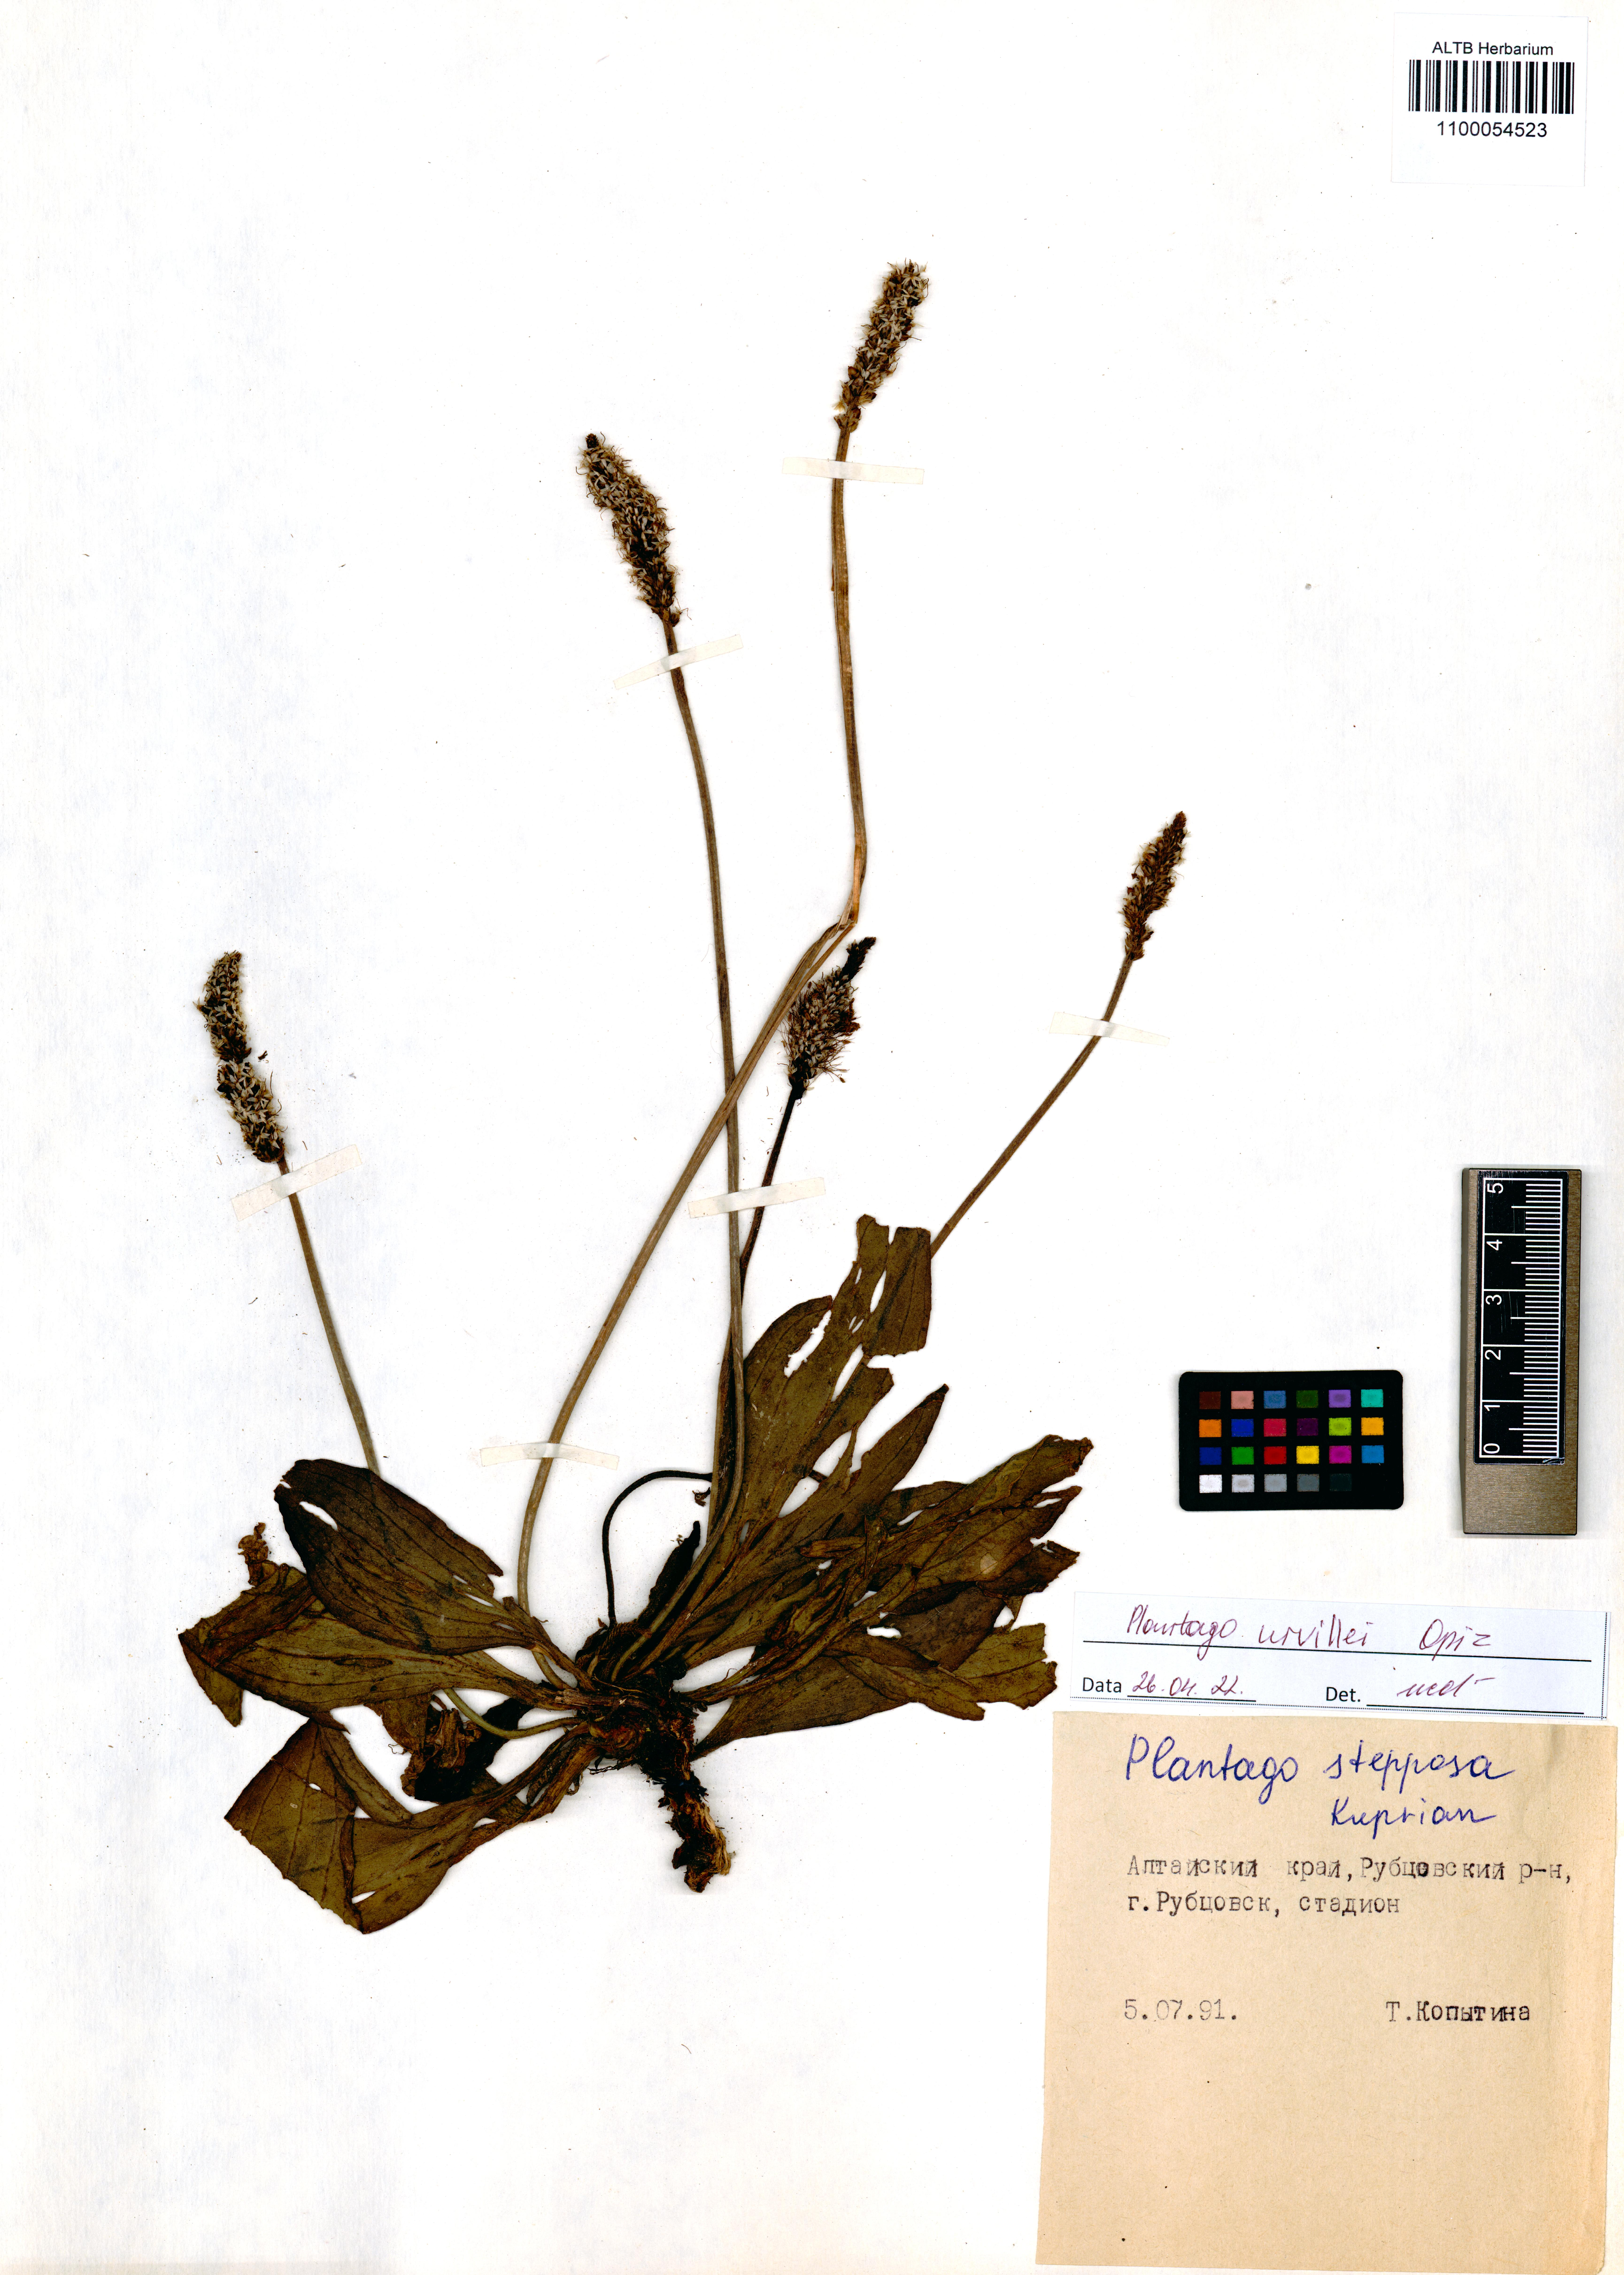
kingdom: Plantae
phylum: Tracheophyta
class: Magnoliopsida
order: Lamiales
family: Plantaginaceae
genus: Plantago
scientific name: Plantago urvillei
